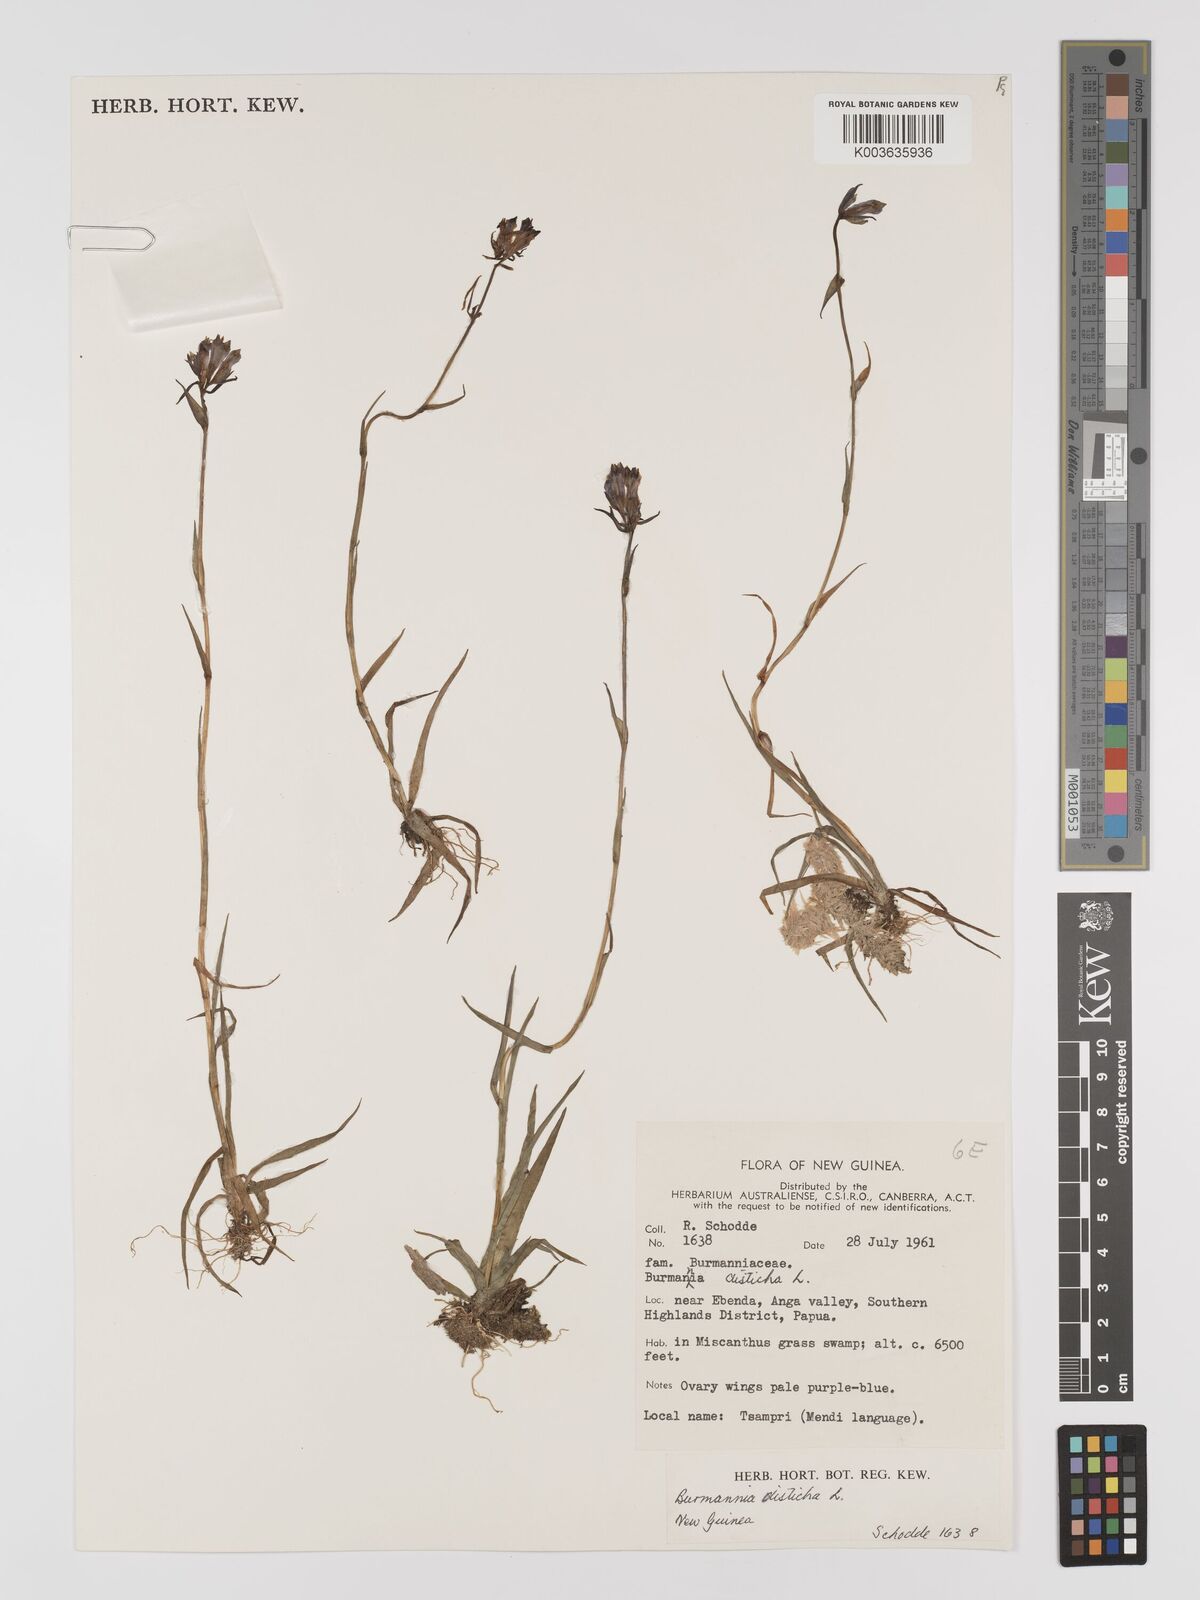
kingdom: Plantae
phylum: Tracheophyta
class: Liliopsida
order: Dioscoreales
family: Burmanniaceae
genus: Burmannia
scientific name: Burmannia disticha
